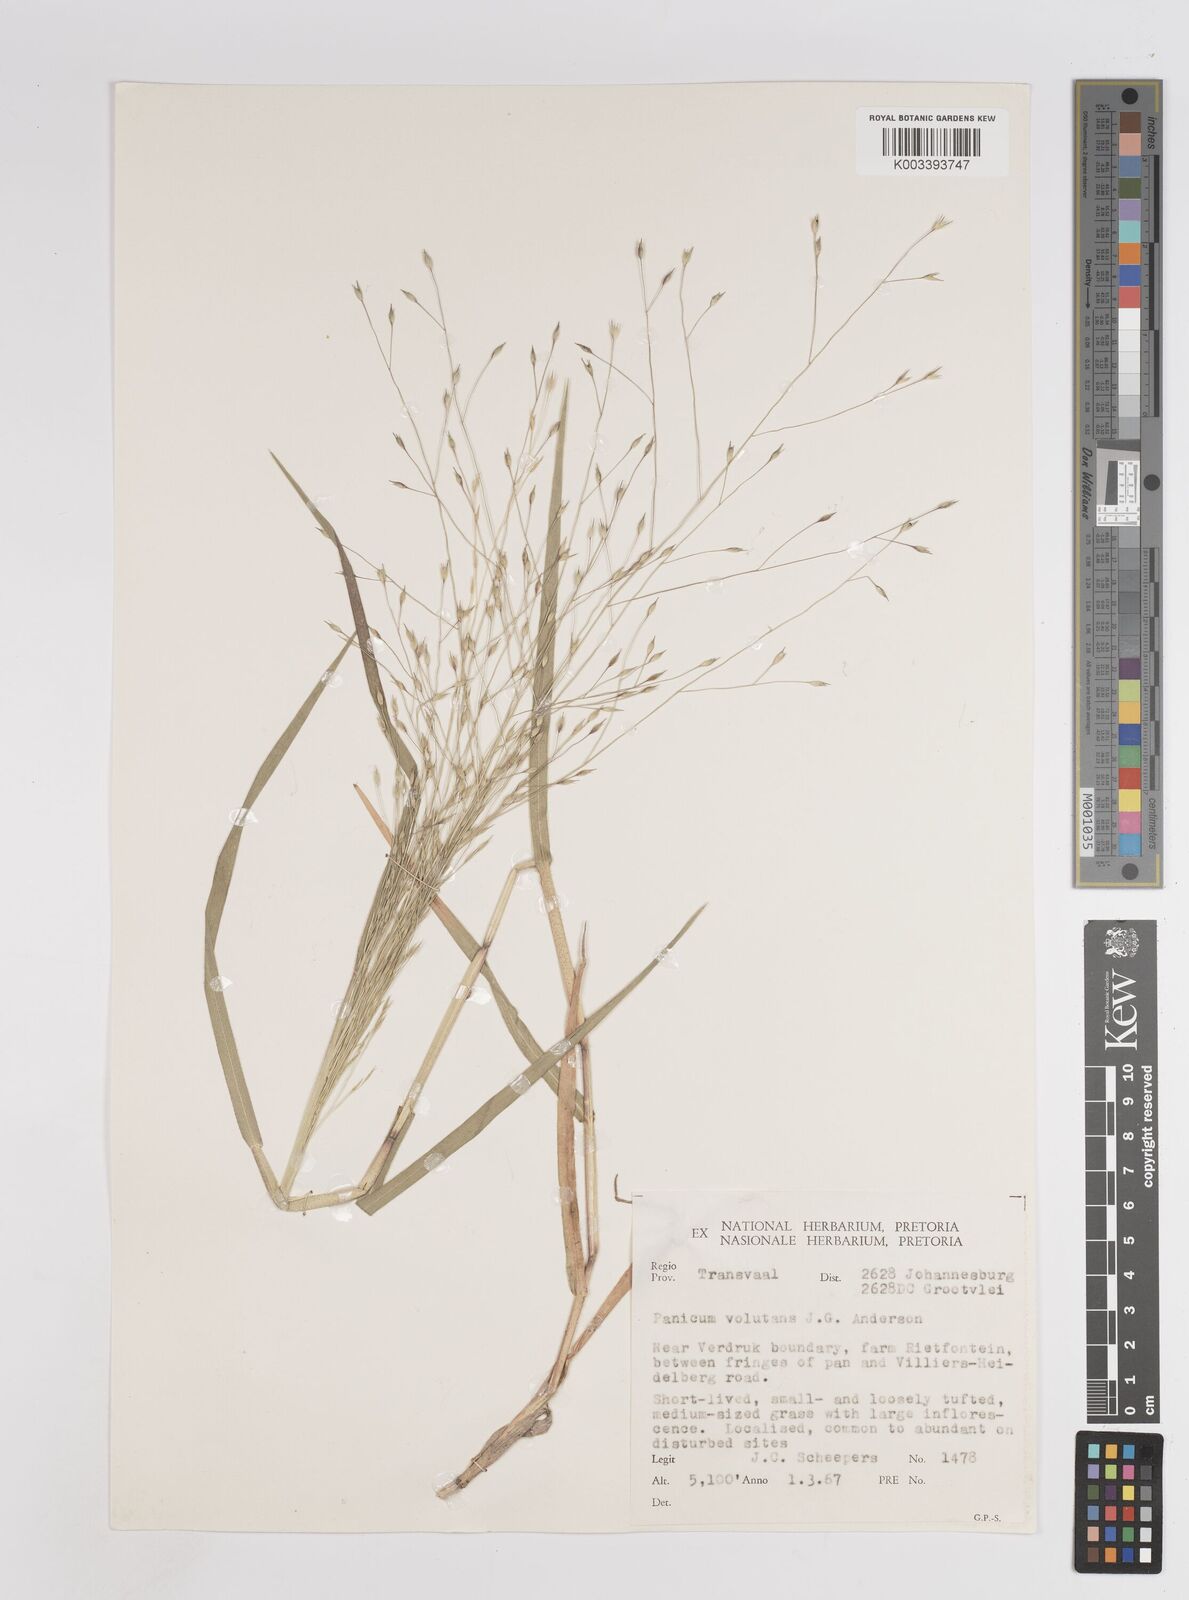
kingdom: Plantae
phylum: Tracheophyta
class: Liliopsida
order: Poales
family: Poaceae
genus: Panicum
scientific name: Panicum volutans
